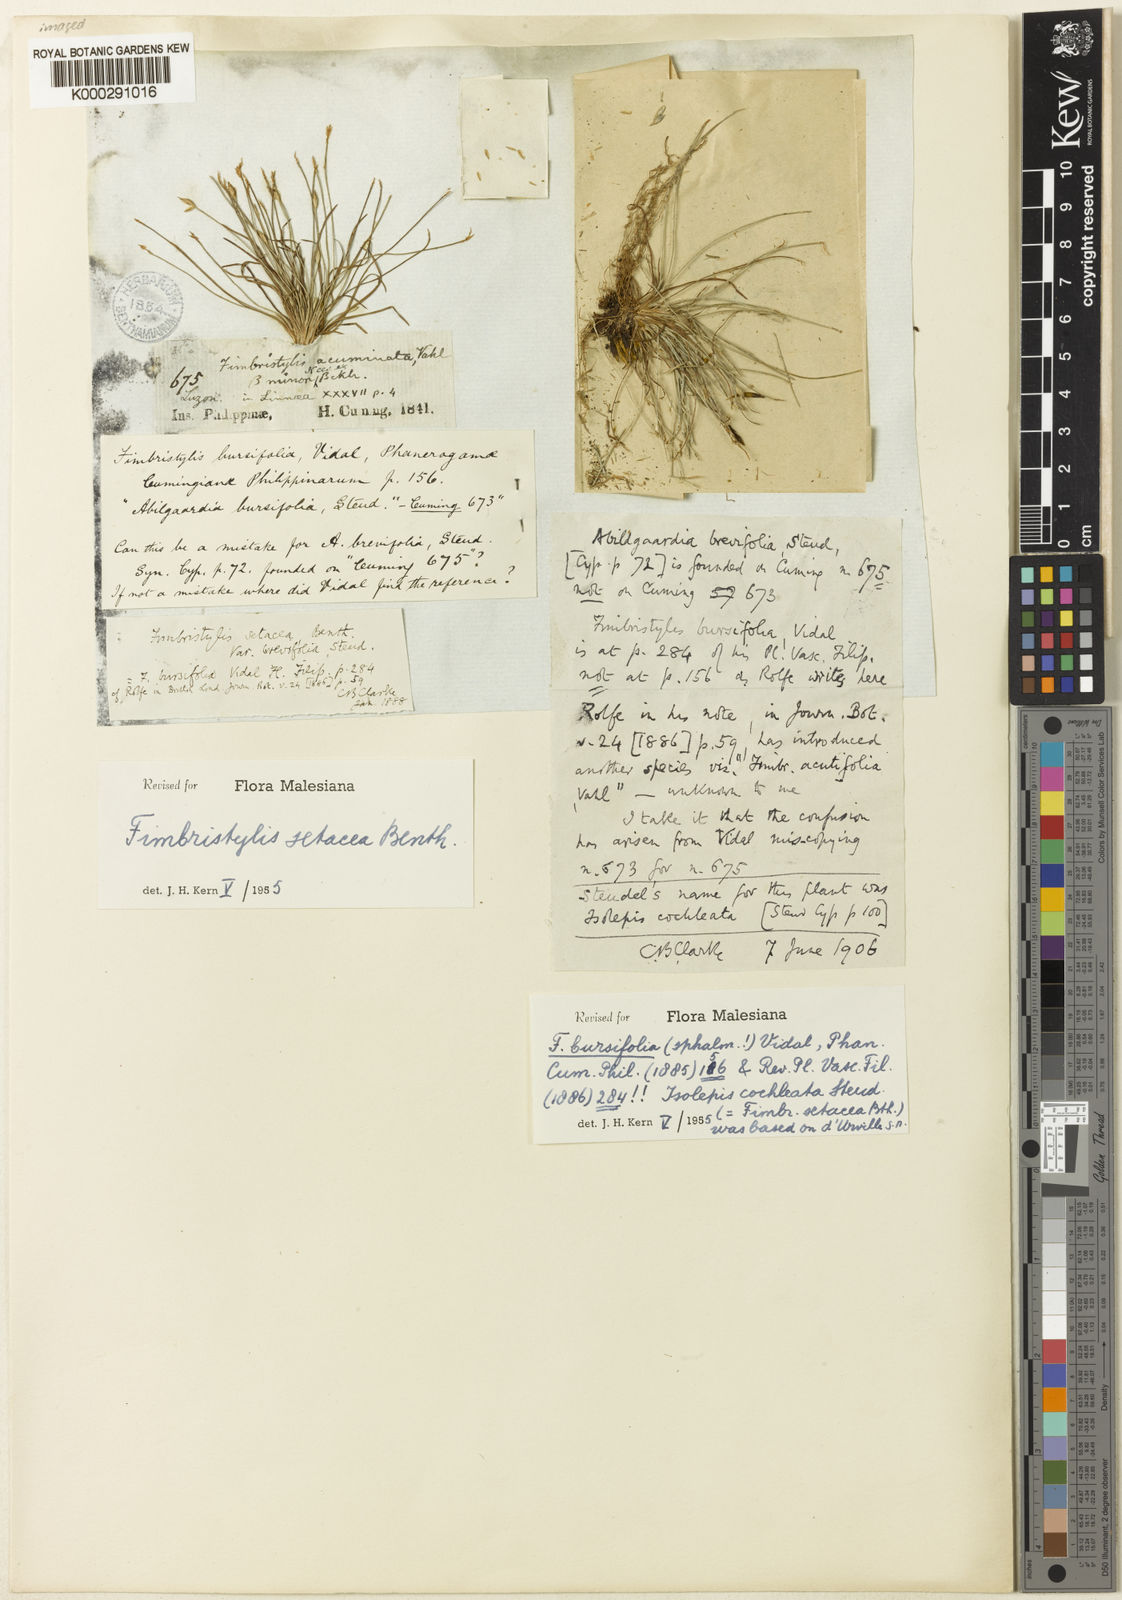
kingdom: Plantae
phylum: Tracheophyta
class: Liliopsida
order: Poales
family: Cyperaceae
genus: Fimbristylis
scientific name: Fimbristylis acicularis
